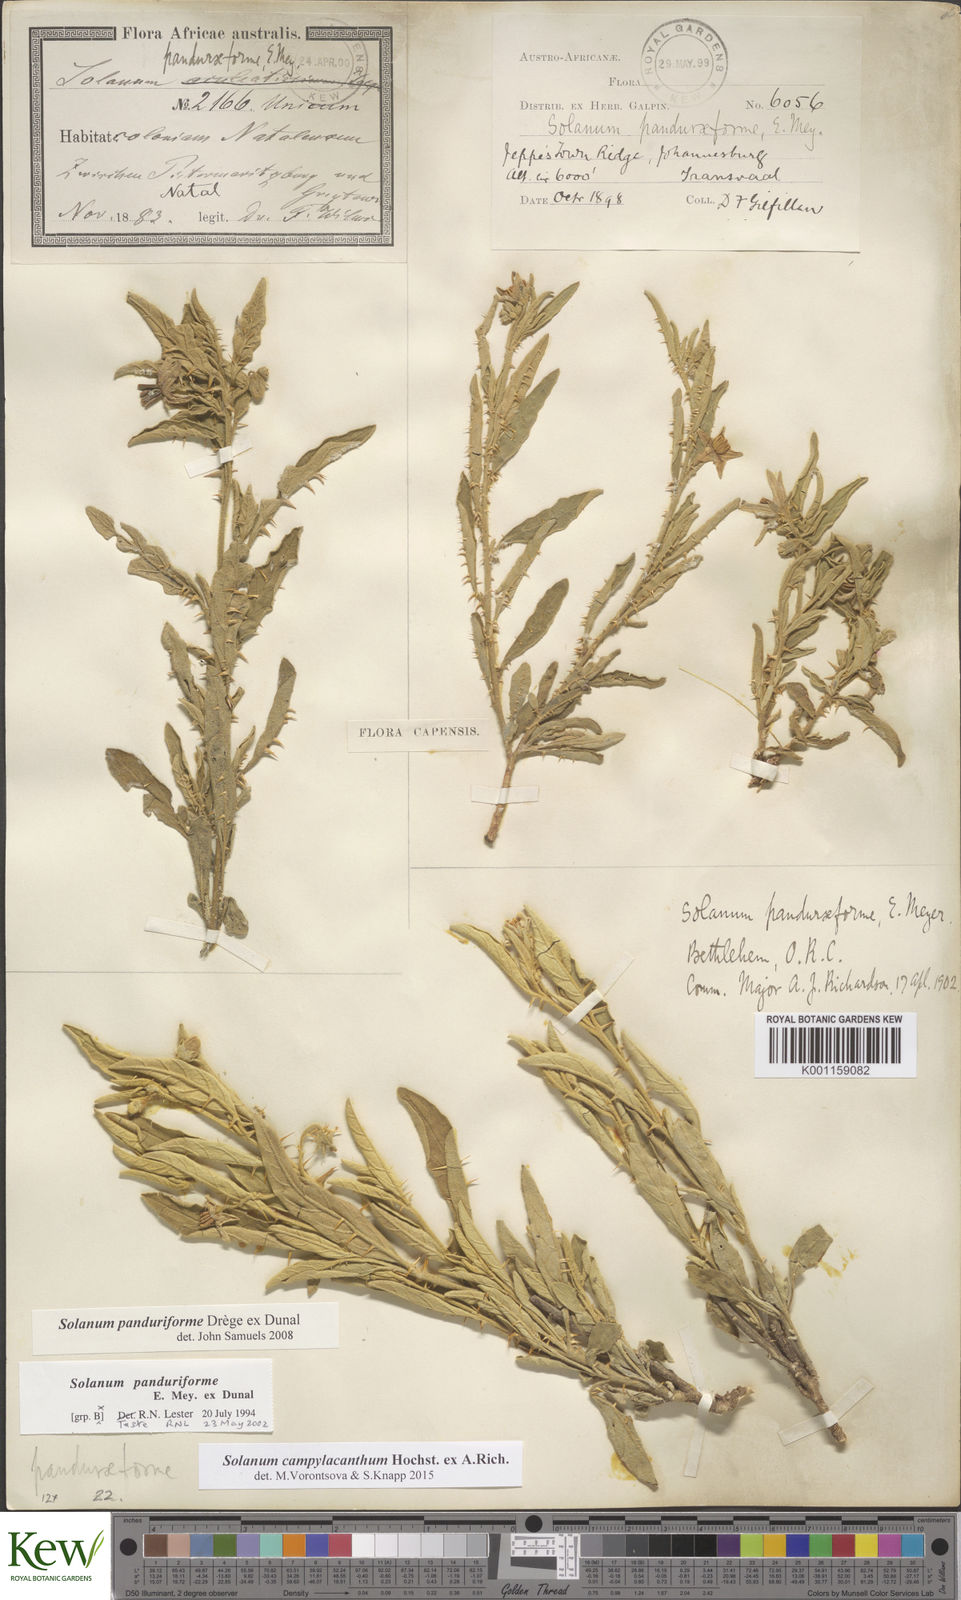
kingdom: Plantae
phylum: Tracheophyta
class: Magnoliopsida
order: Solanales
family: Solanaceae
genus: Solanum
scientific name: Solanum campylacanthum
